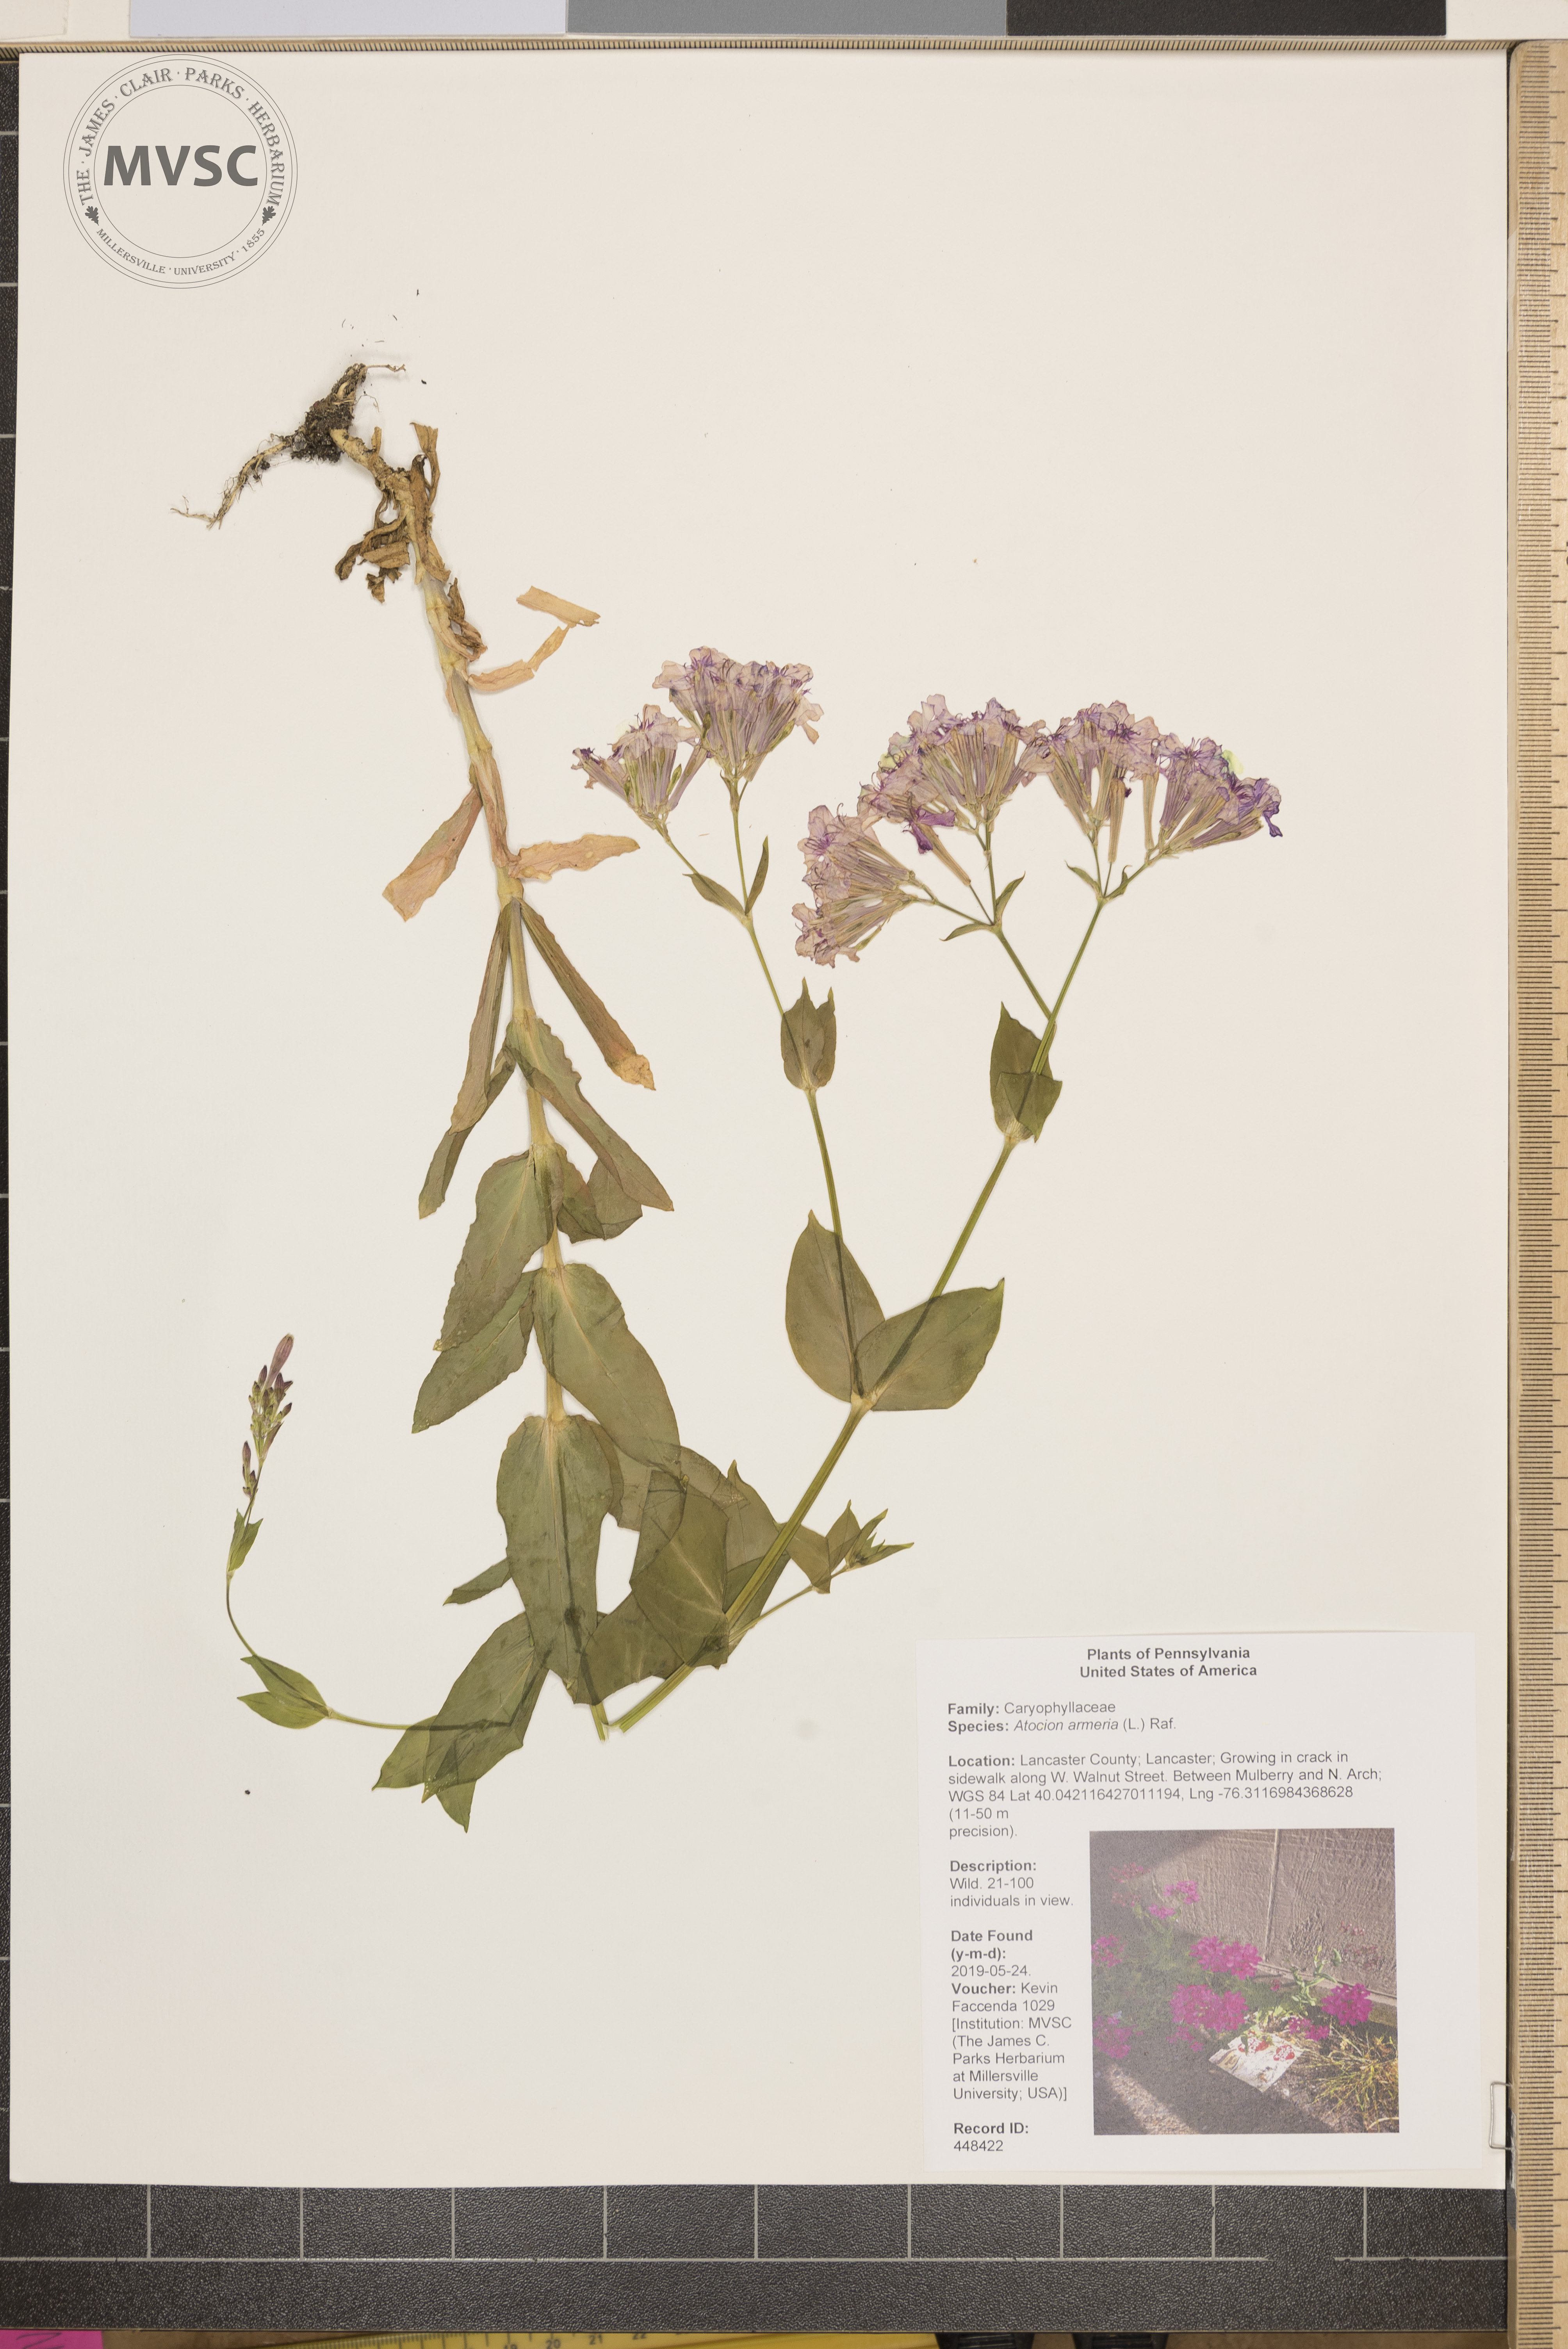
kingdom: Plantae
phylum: Tracheophyta
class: Magnoliopsida
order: Caryophyllales
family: Caryophyllaceae
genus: Atocion
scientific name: Atocion armeria
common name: Sweet william catchfly
